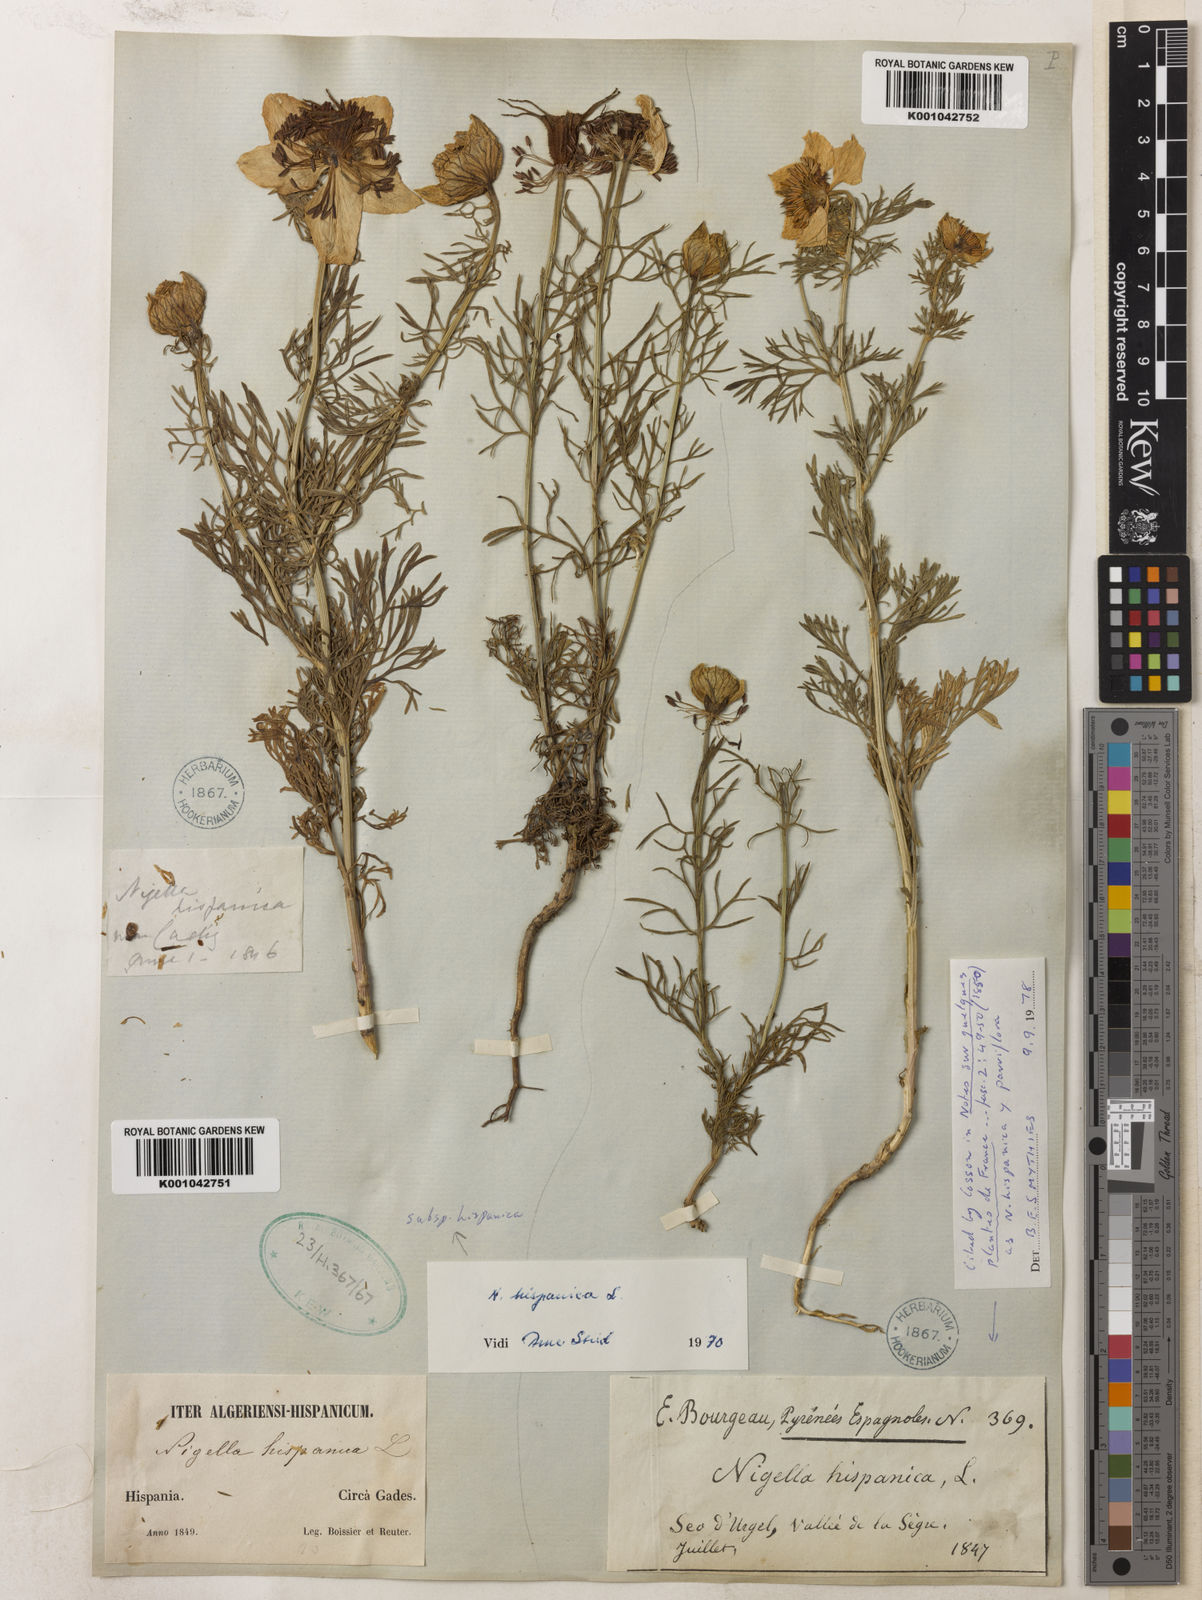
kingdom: Plantae
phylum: Tracheophyta
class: Magnoliopsida
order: Ranunculales
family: Ranunculaceae
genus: Nigella
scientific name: Nigella hispanica
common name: Fennel-flower
